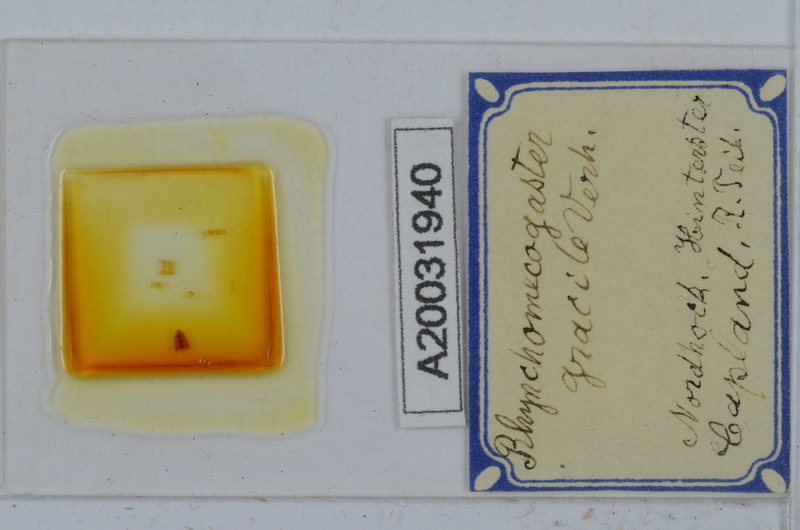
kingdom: Animalia
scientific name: Animalia
